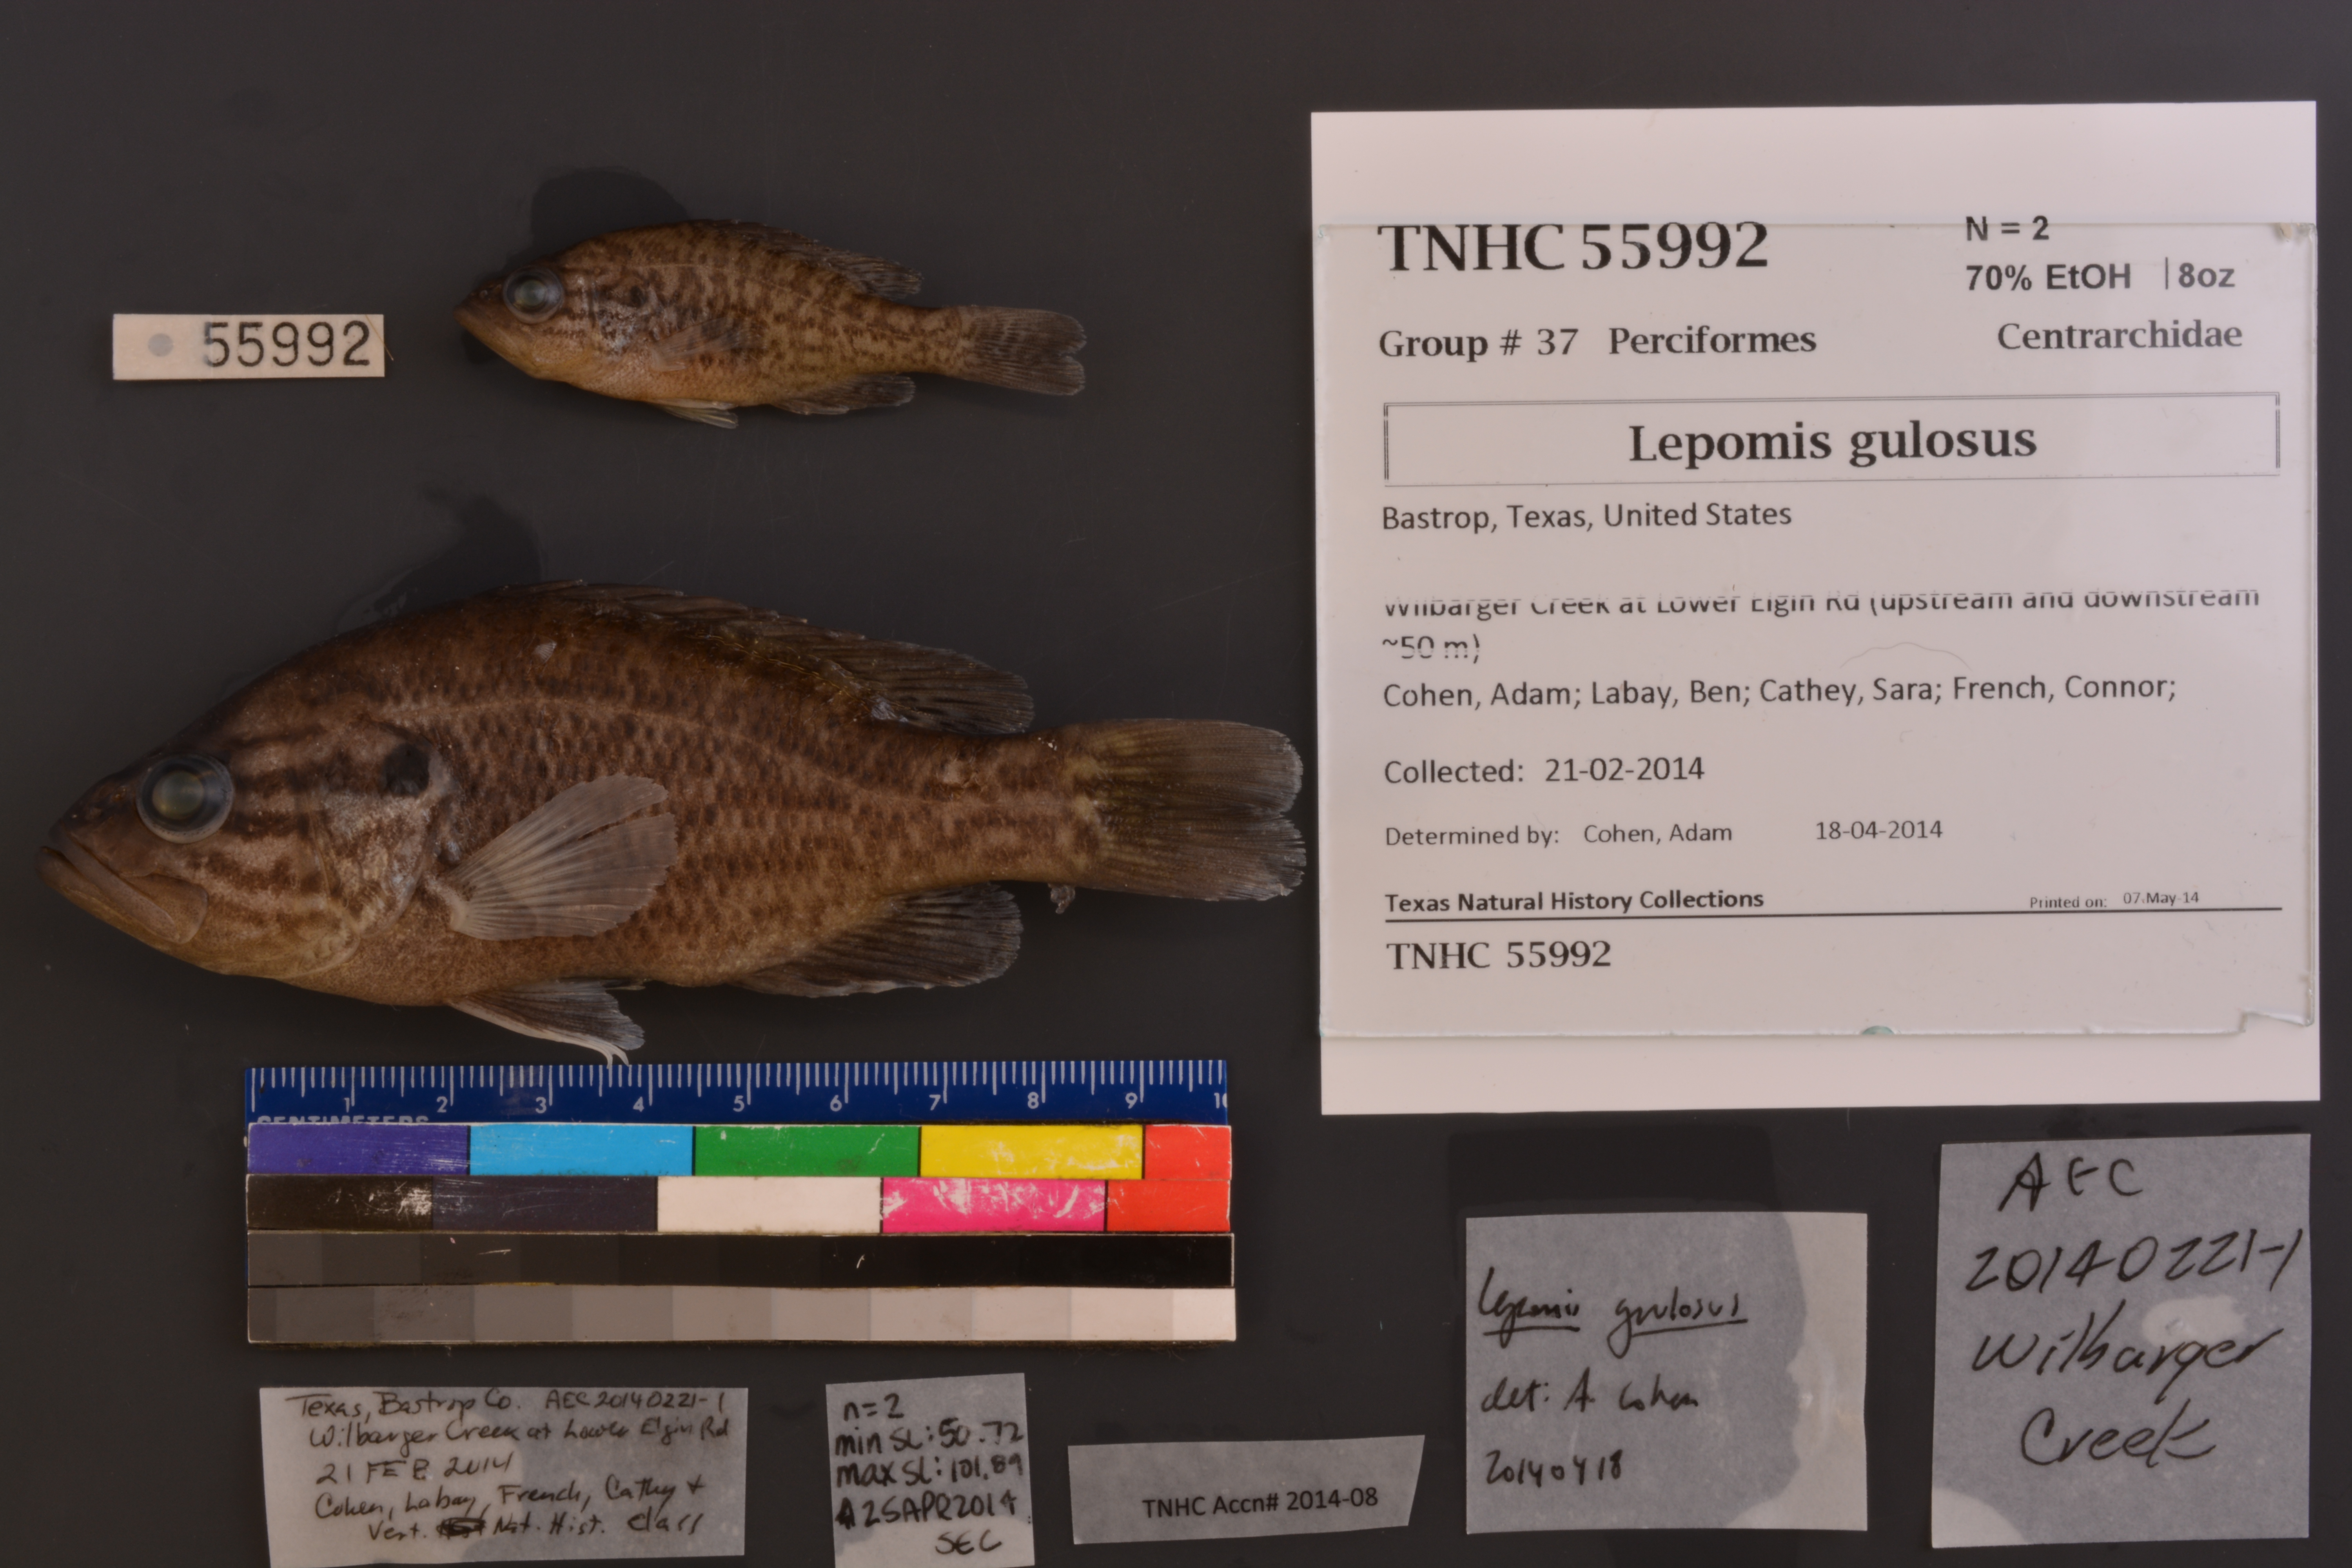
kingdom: Animalia
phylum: Chordata
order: Perciformes
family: Centrarchidae
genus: Lepomis
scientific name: Lepomis gulosus
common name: Warmouth
